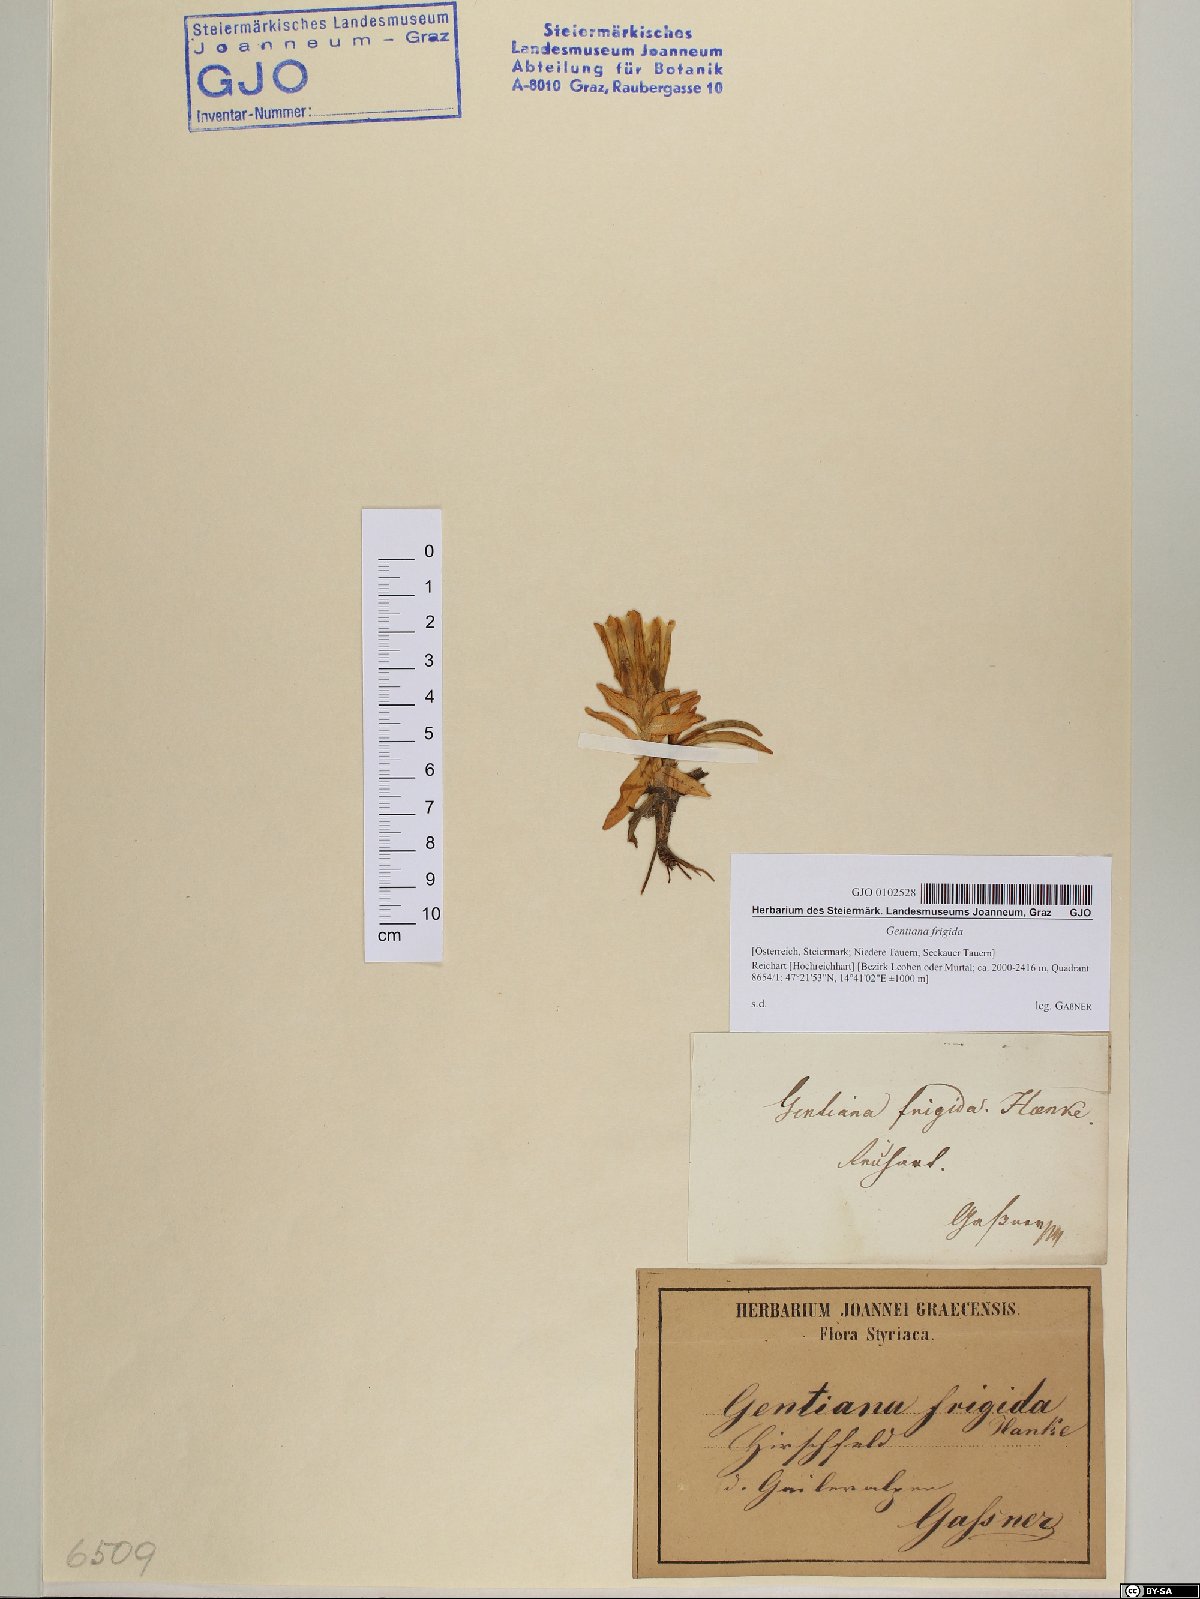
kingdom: Plantae
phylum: Tracheophyta
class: Magnoliopsida
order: Gentianales
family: Gentianaceae
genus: Gentiana
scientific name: Gentiana frigida
